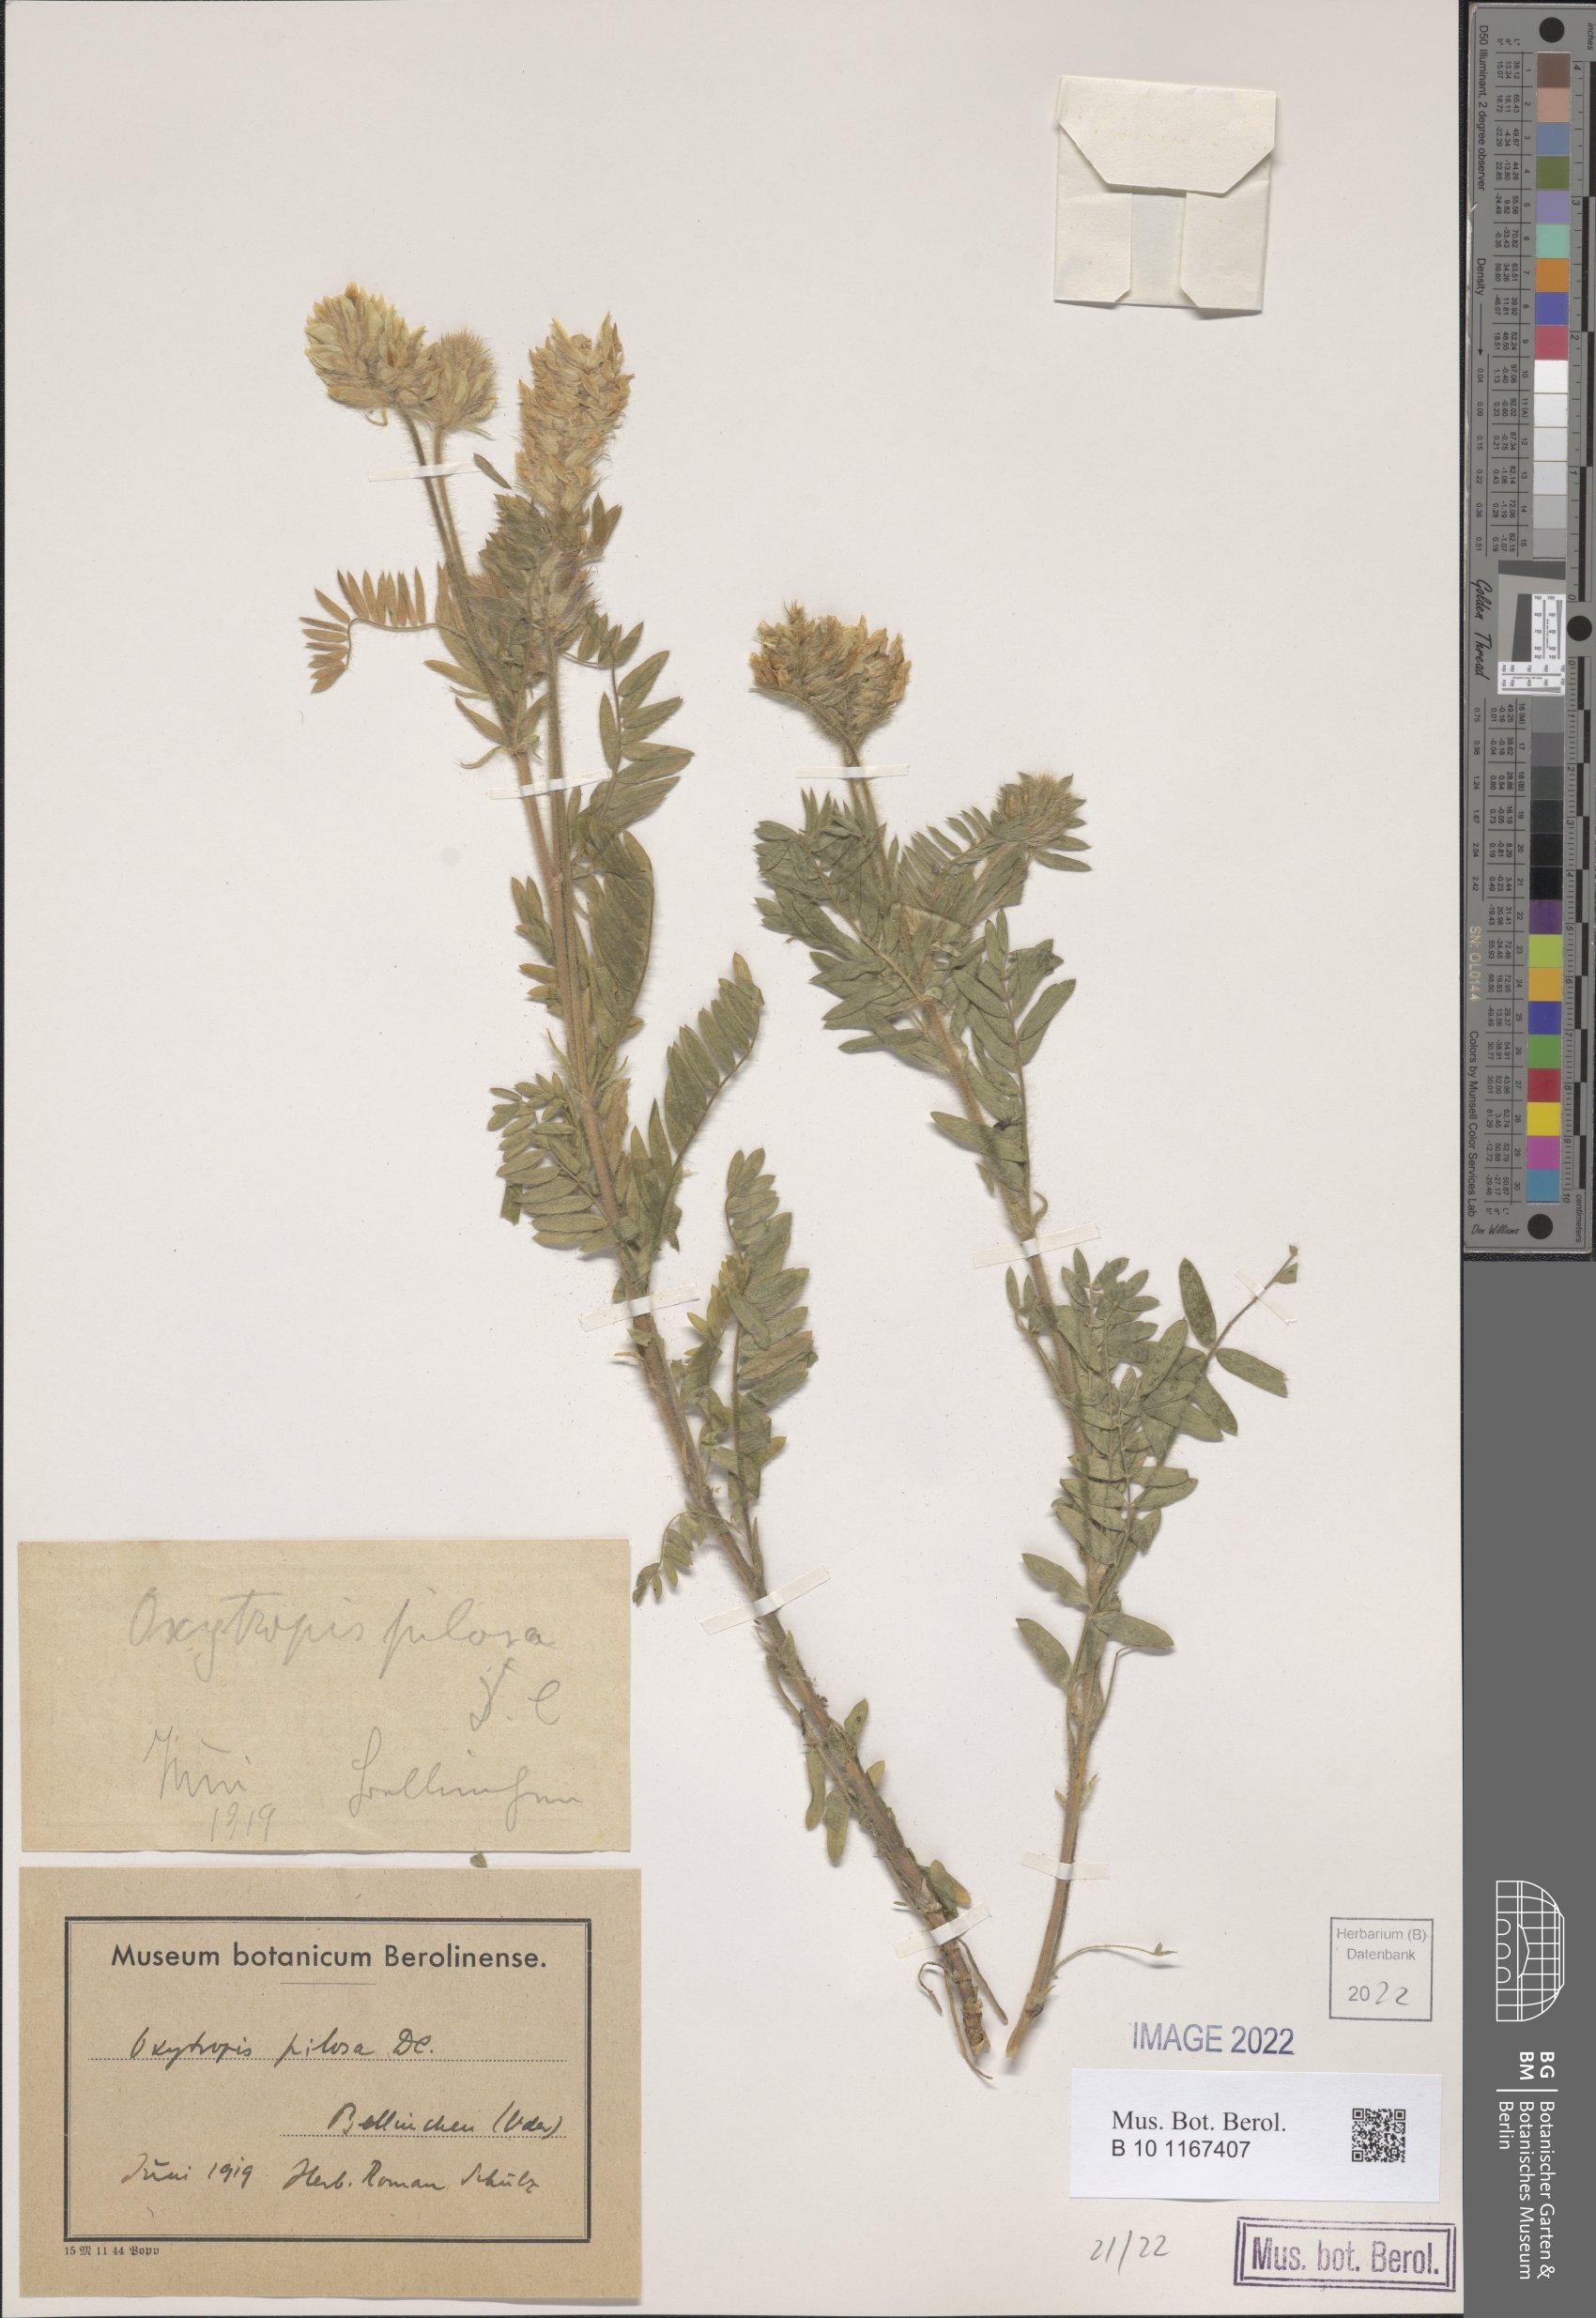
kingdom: Plantae
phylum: Tracheophyta
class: Magnoliopsida
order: Fabales
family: Fabaceae
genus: Oxytropis
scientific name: Oxytropis pilosa
